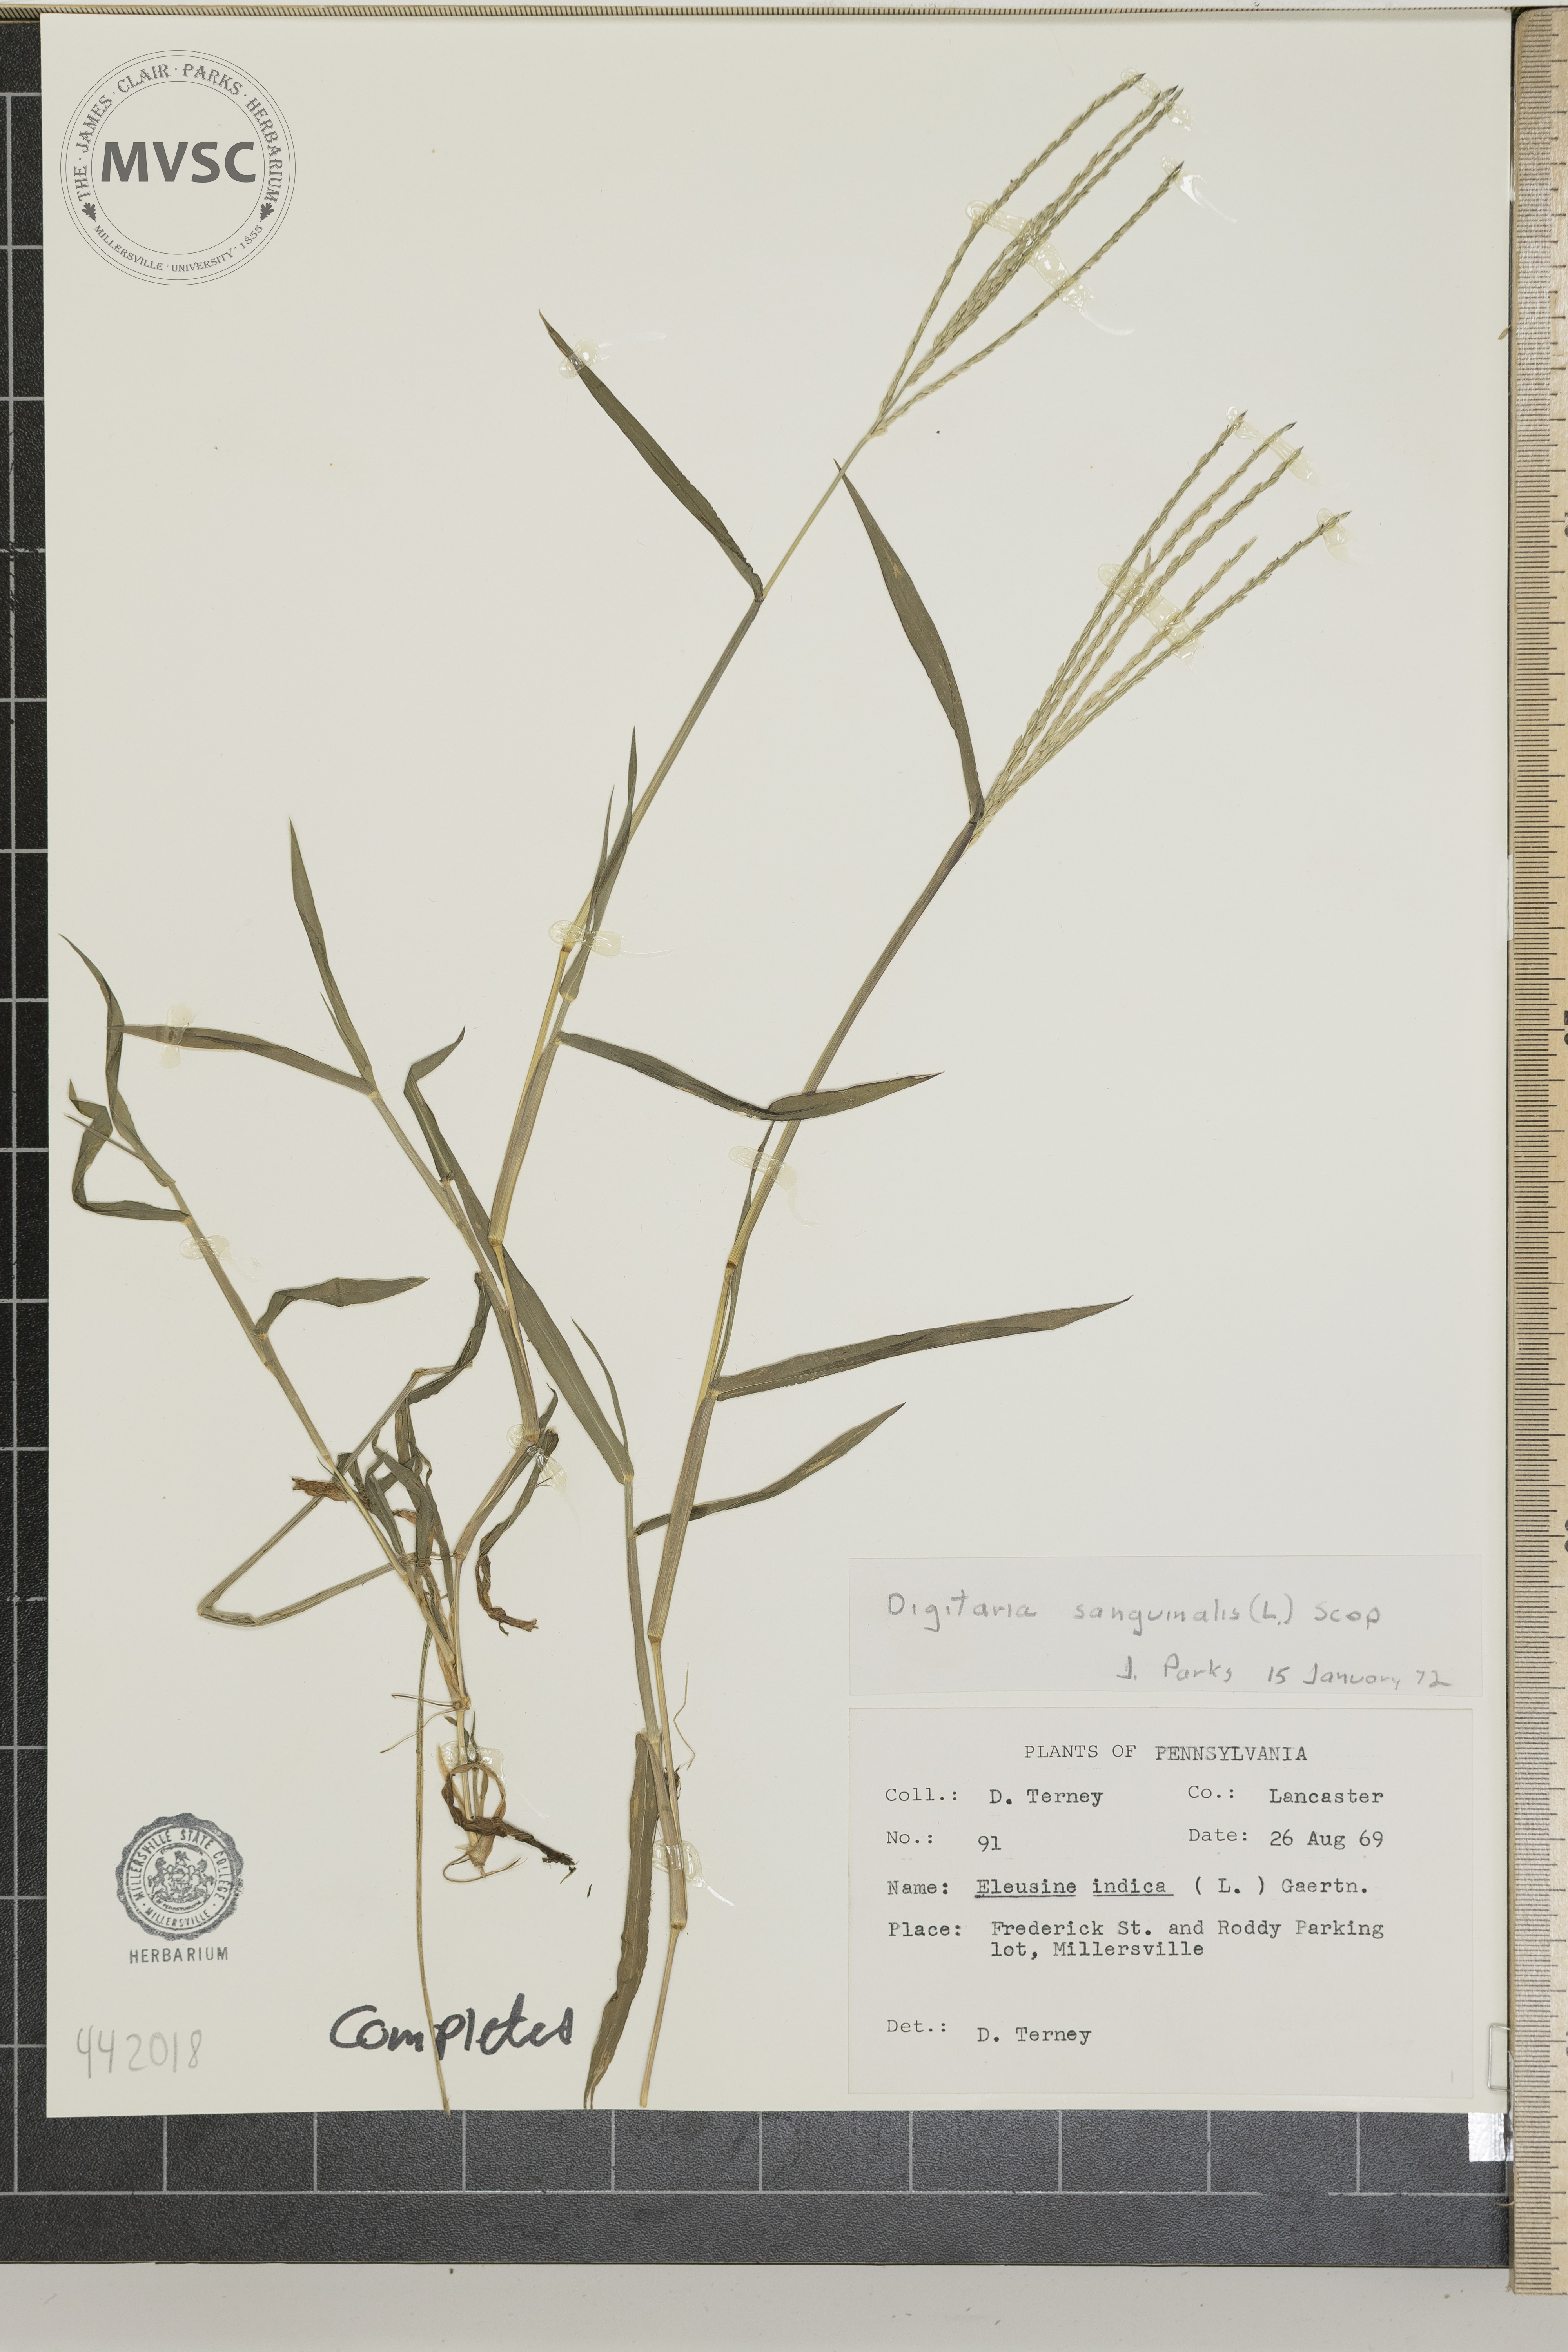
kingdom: Plantae
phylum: Tracheophyta
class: Liliopsida
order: Poales
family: Poaceae
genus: Digitaria
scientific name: Digitaria sangiunalis
